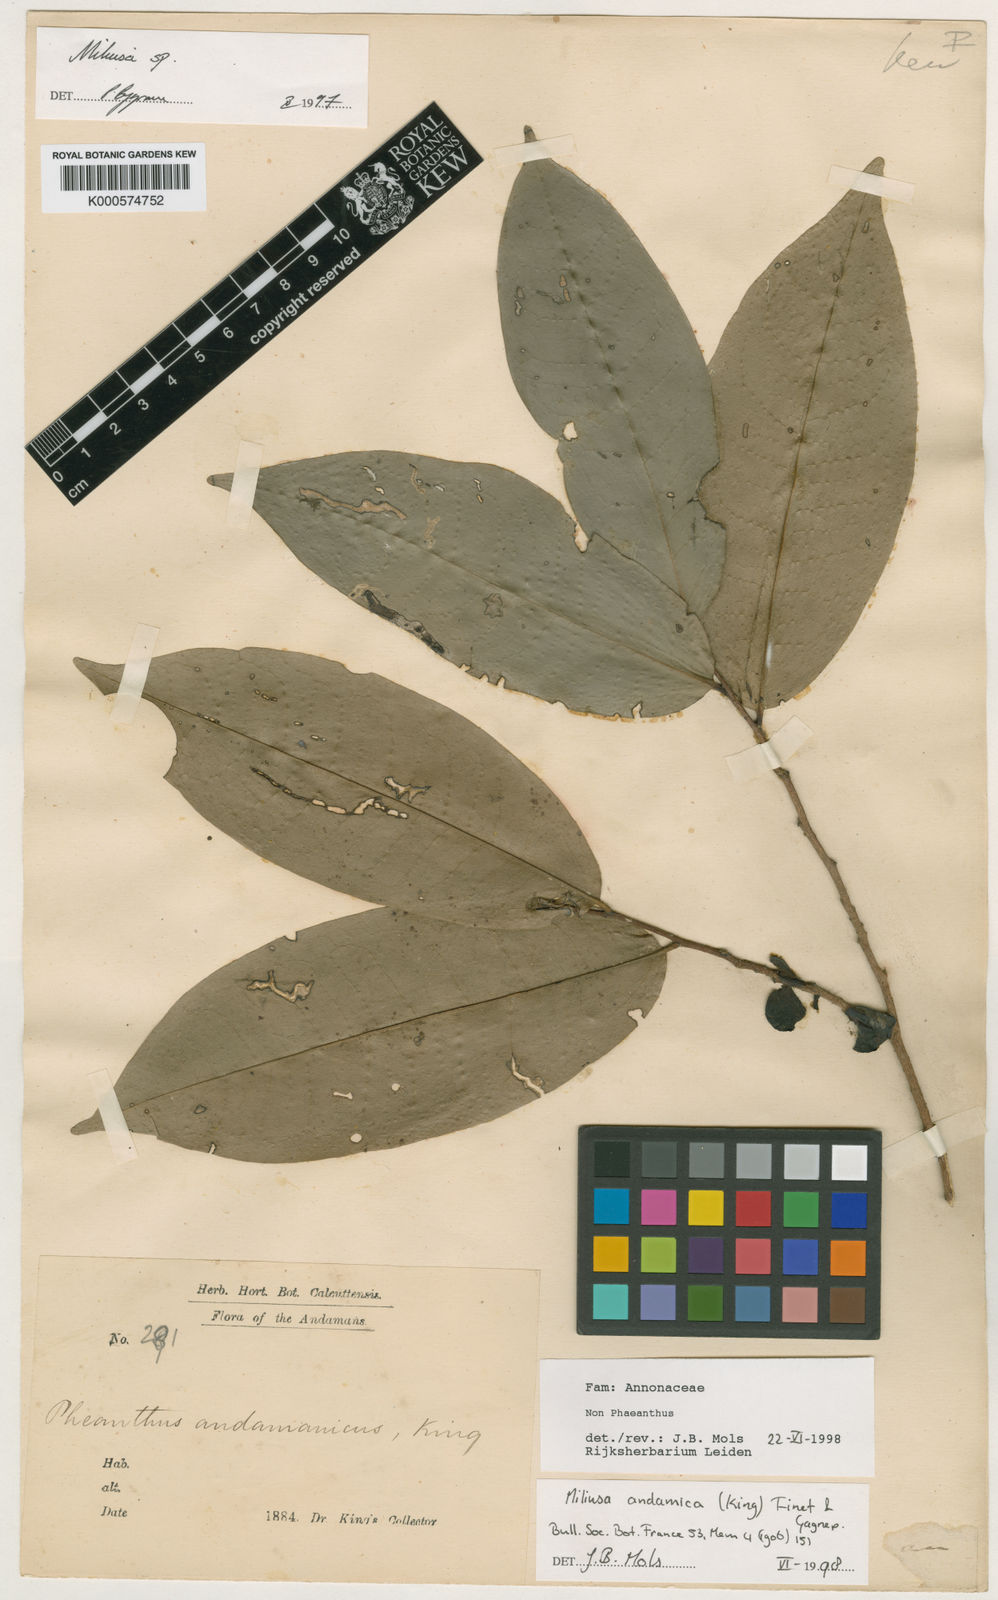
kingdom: Plantae
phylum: Tracheophyta
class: Magnoliopsida
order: Magnoliales
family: Annonaceae
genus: Miliusa
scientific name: Miliusa andamanica
